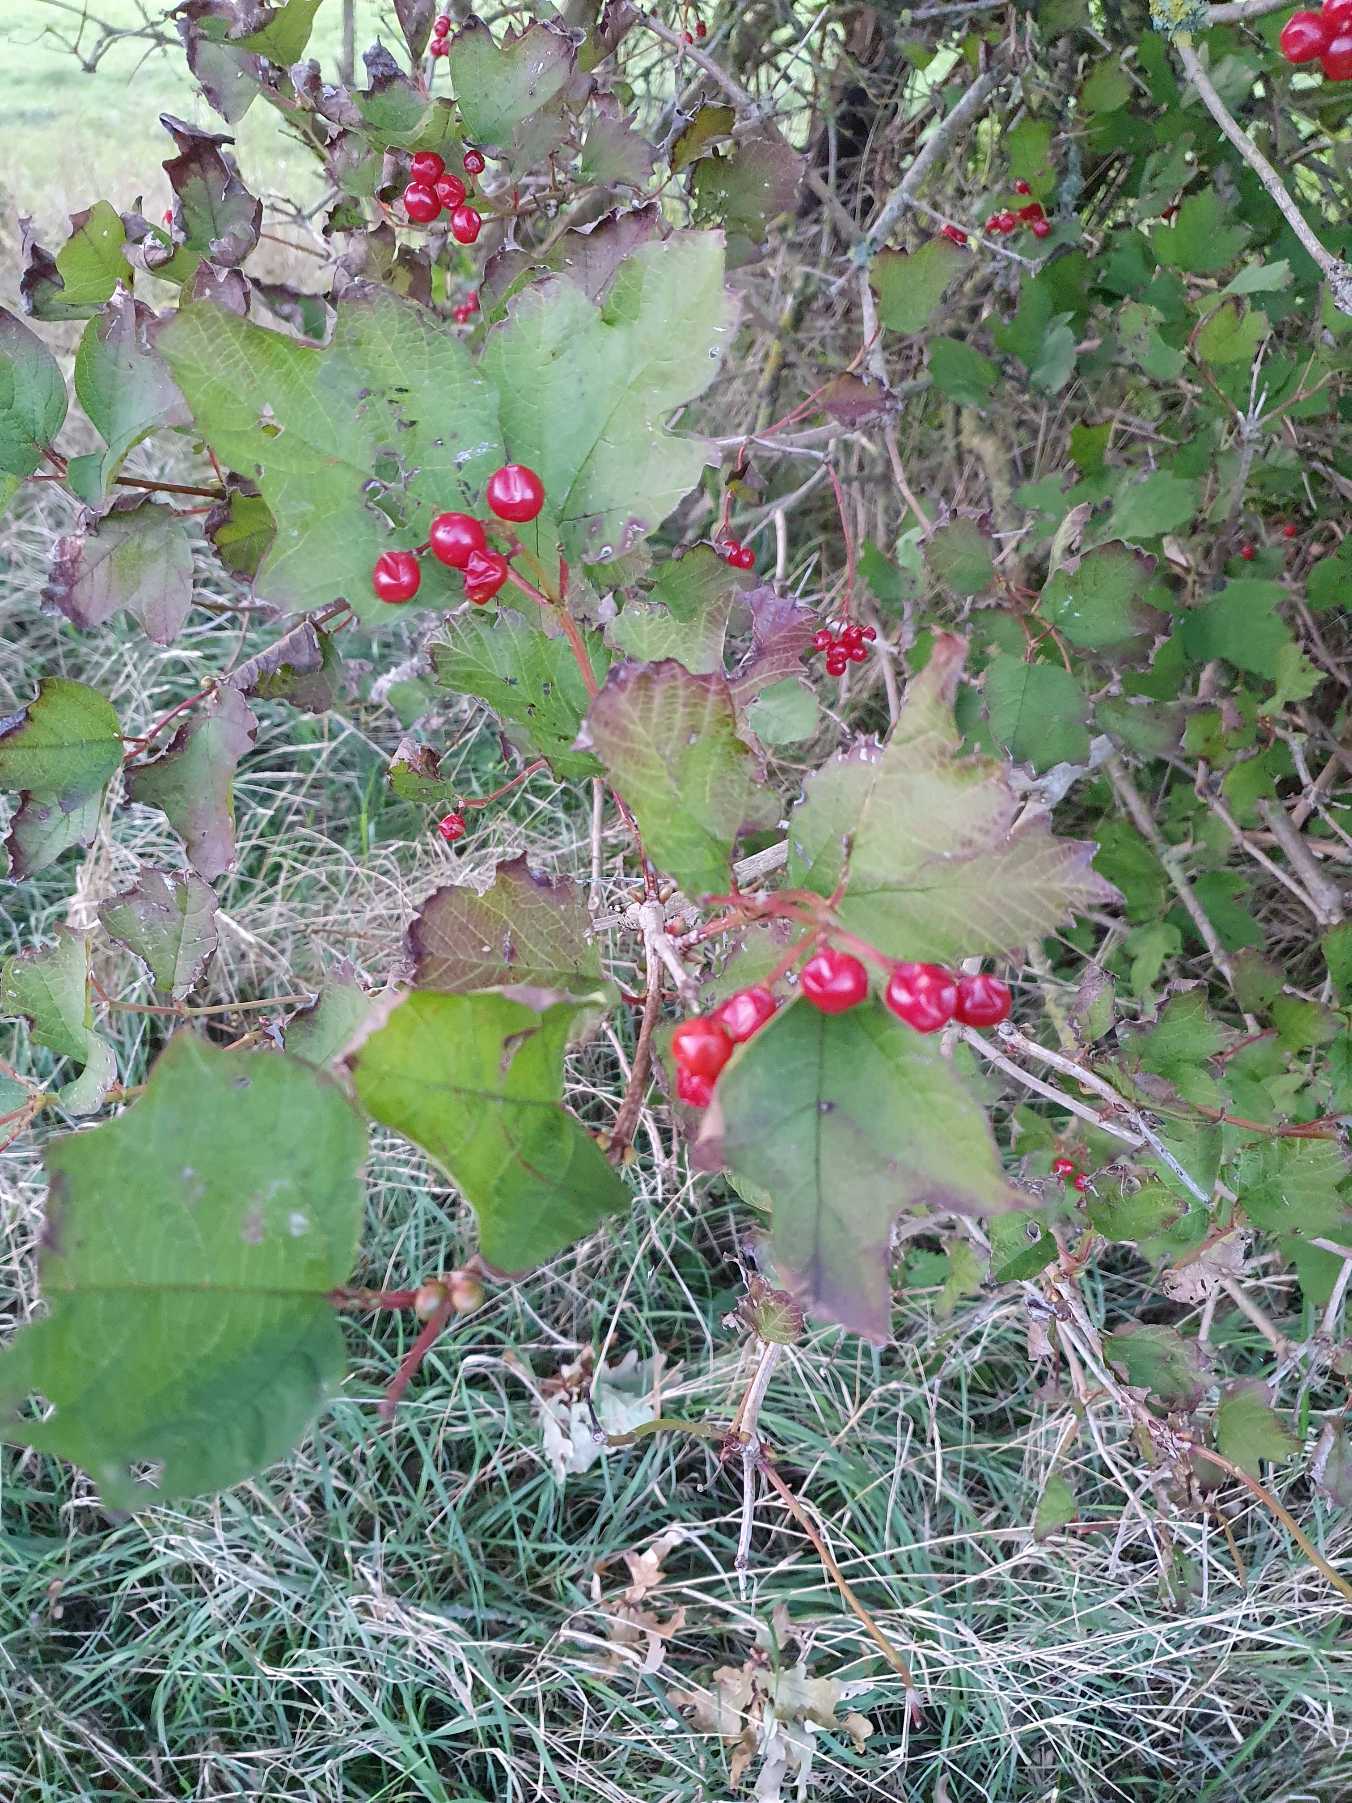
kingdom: Plantae
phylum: Tracheophyta
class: Magnoliopsida
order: Dipsacales
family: Viburnaceae
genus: Viburnum
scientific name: Viburnum opulus
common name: Kvalkved
